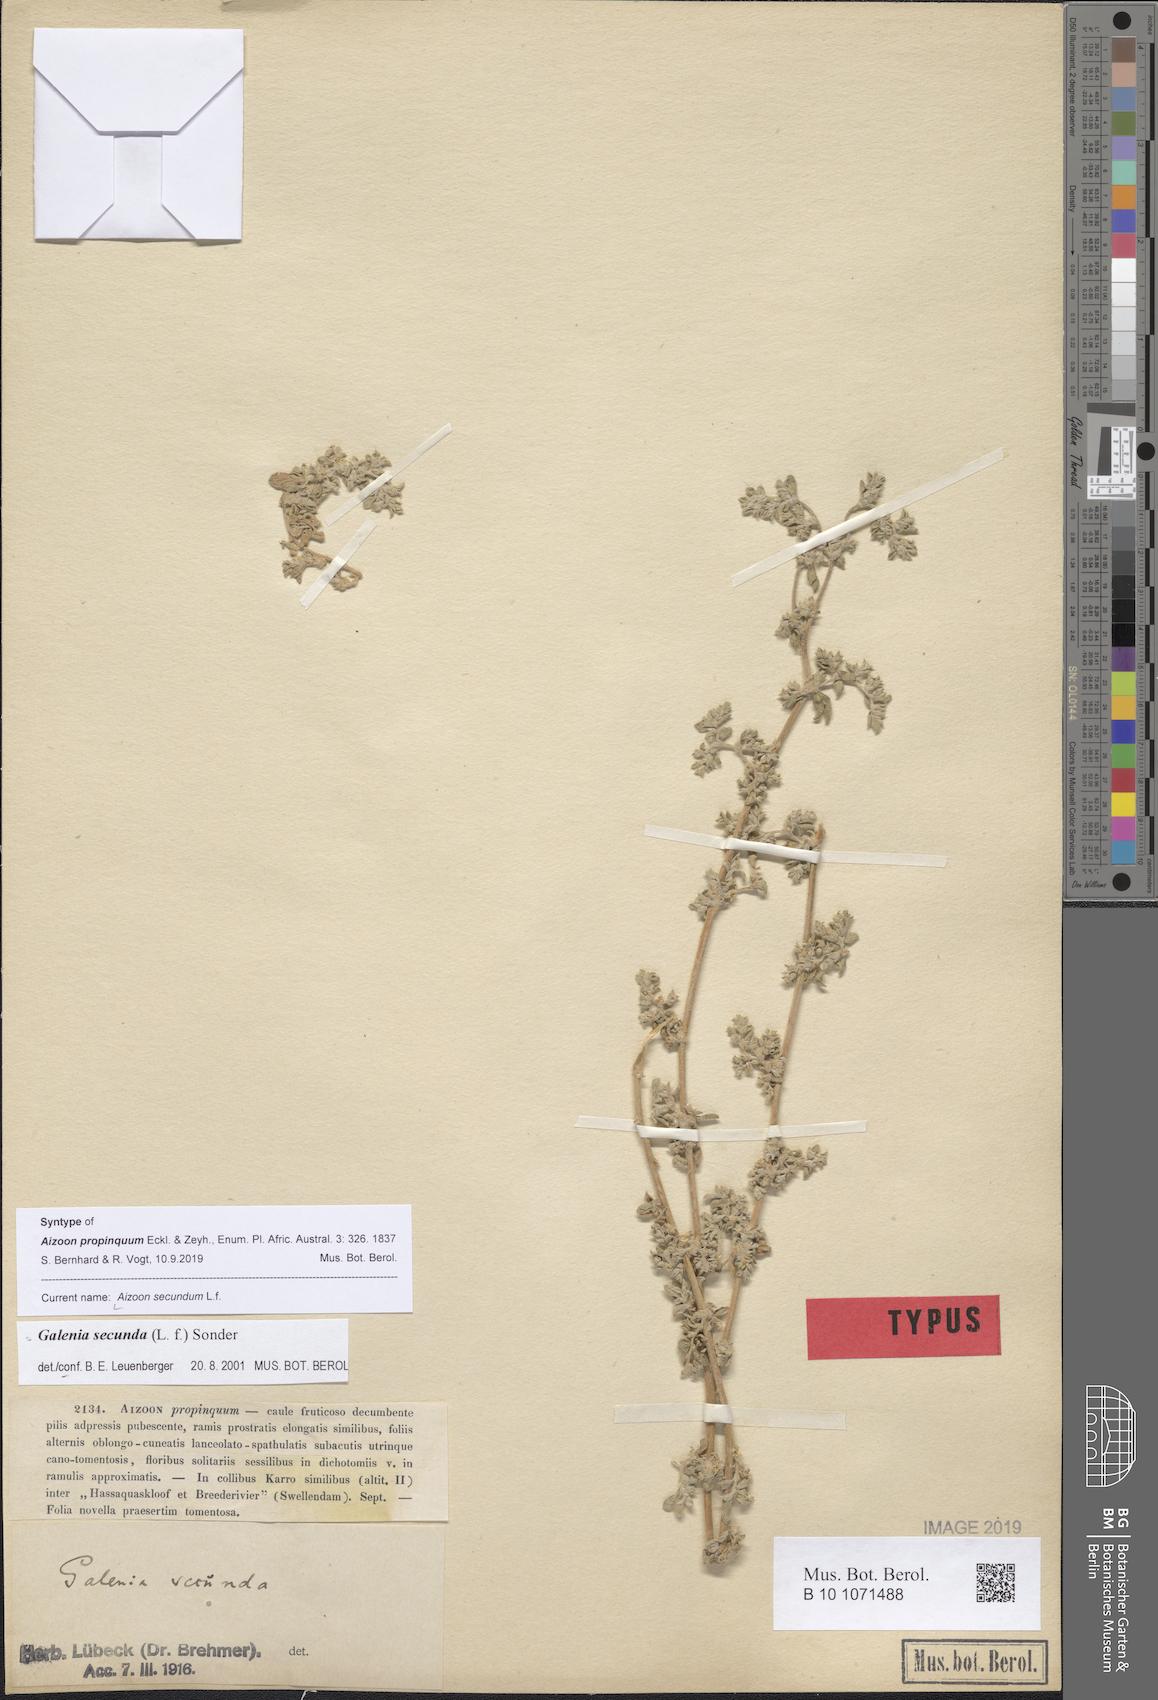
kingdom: Plantae
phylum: Tracheophyta
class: Magnoliopsida
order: Caryophyllales
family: Aizoaceae
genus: Aizoon
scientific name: Aizoon secundum
